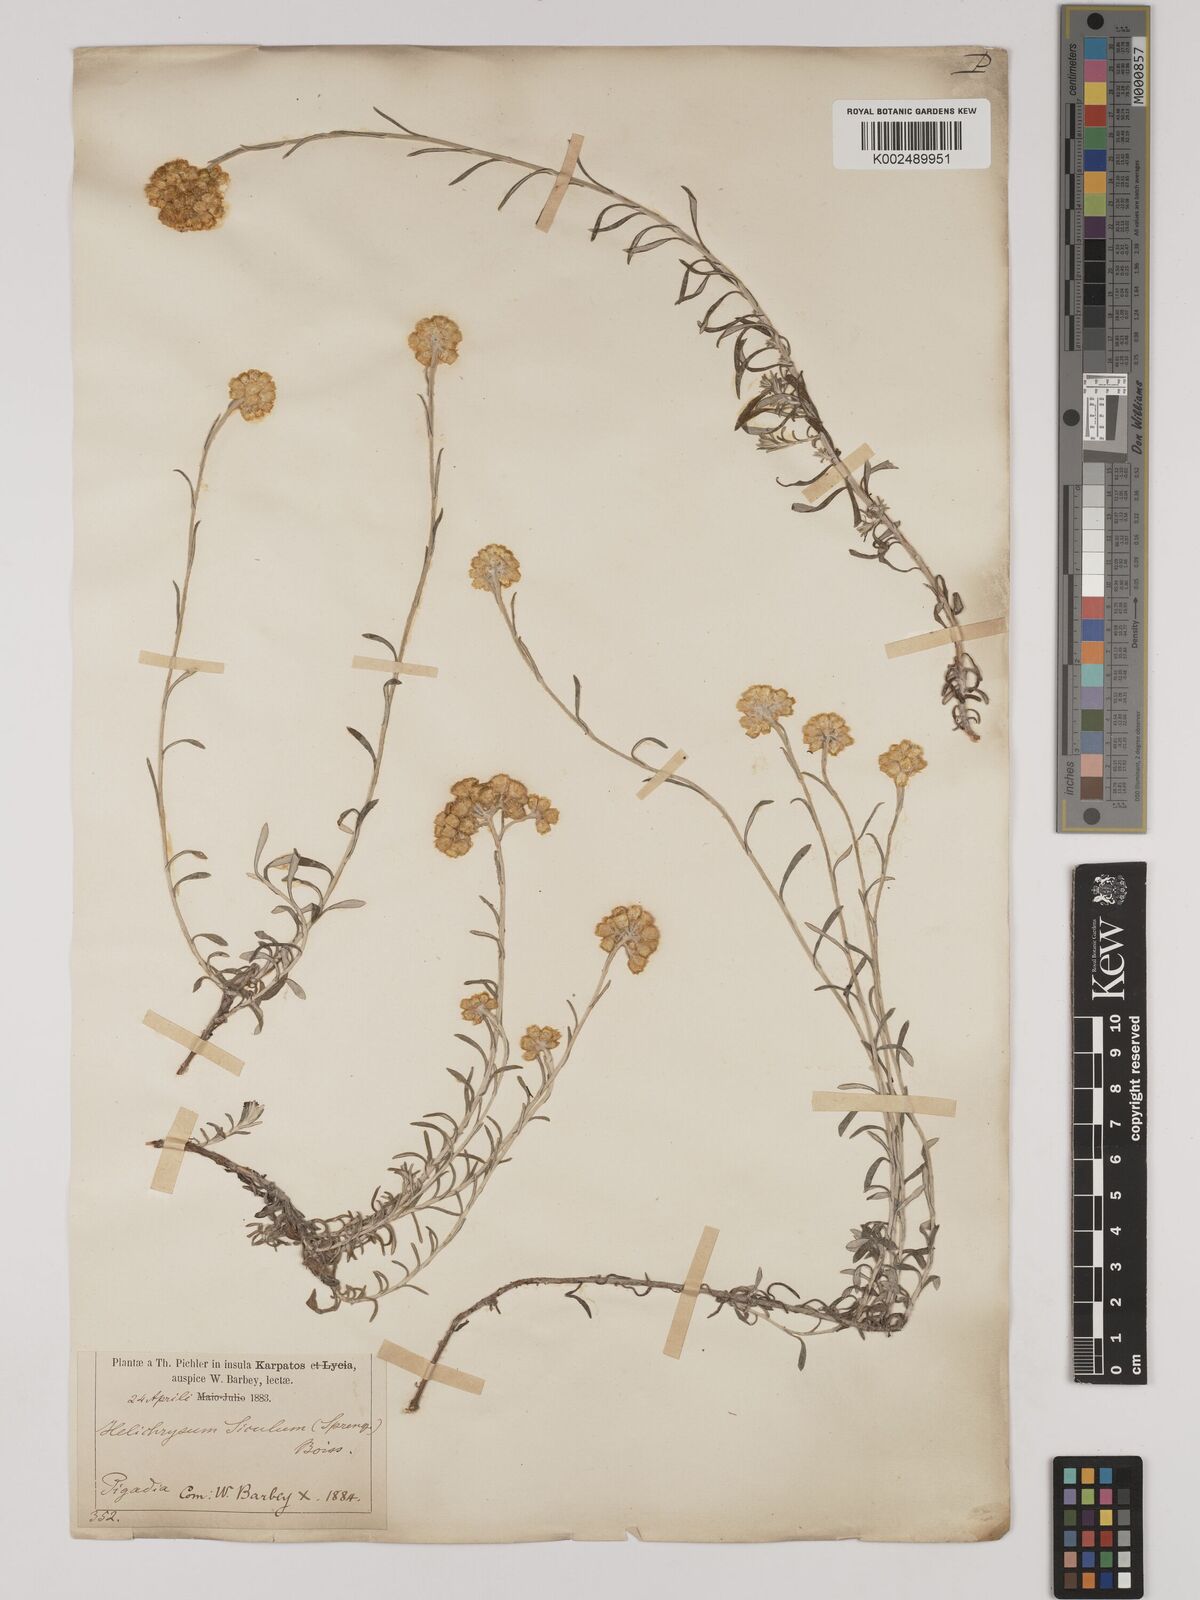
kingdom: Plantae
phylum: Tracheophyta
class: Magnoliopsida
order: Asterales
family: Asteraceae
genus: Helichrysum
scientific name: Helichrysum italicum
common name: Curryplant
